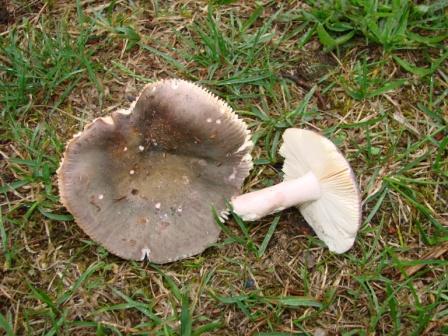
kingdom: Fungi
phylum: Basidiomycota
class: Agaricomycetes
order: Russulales
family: Russulaceae
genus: Russula
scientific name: Russula ionochlora
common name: violetgrøn skørhat
